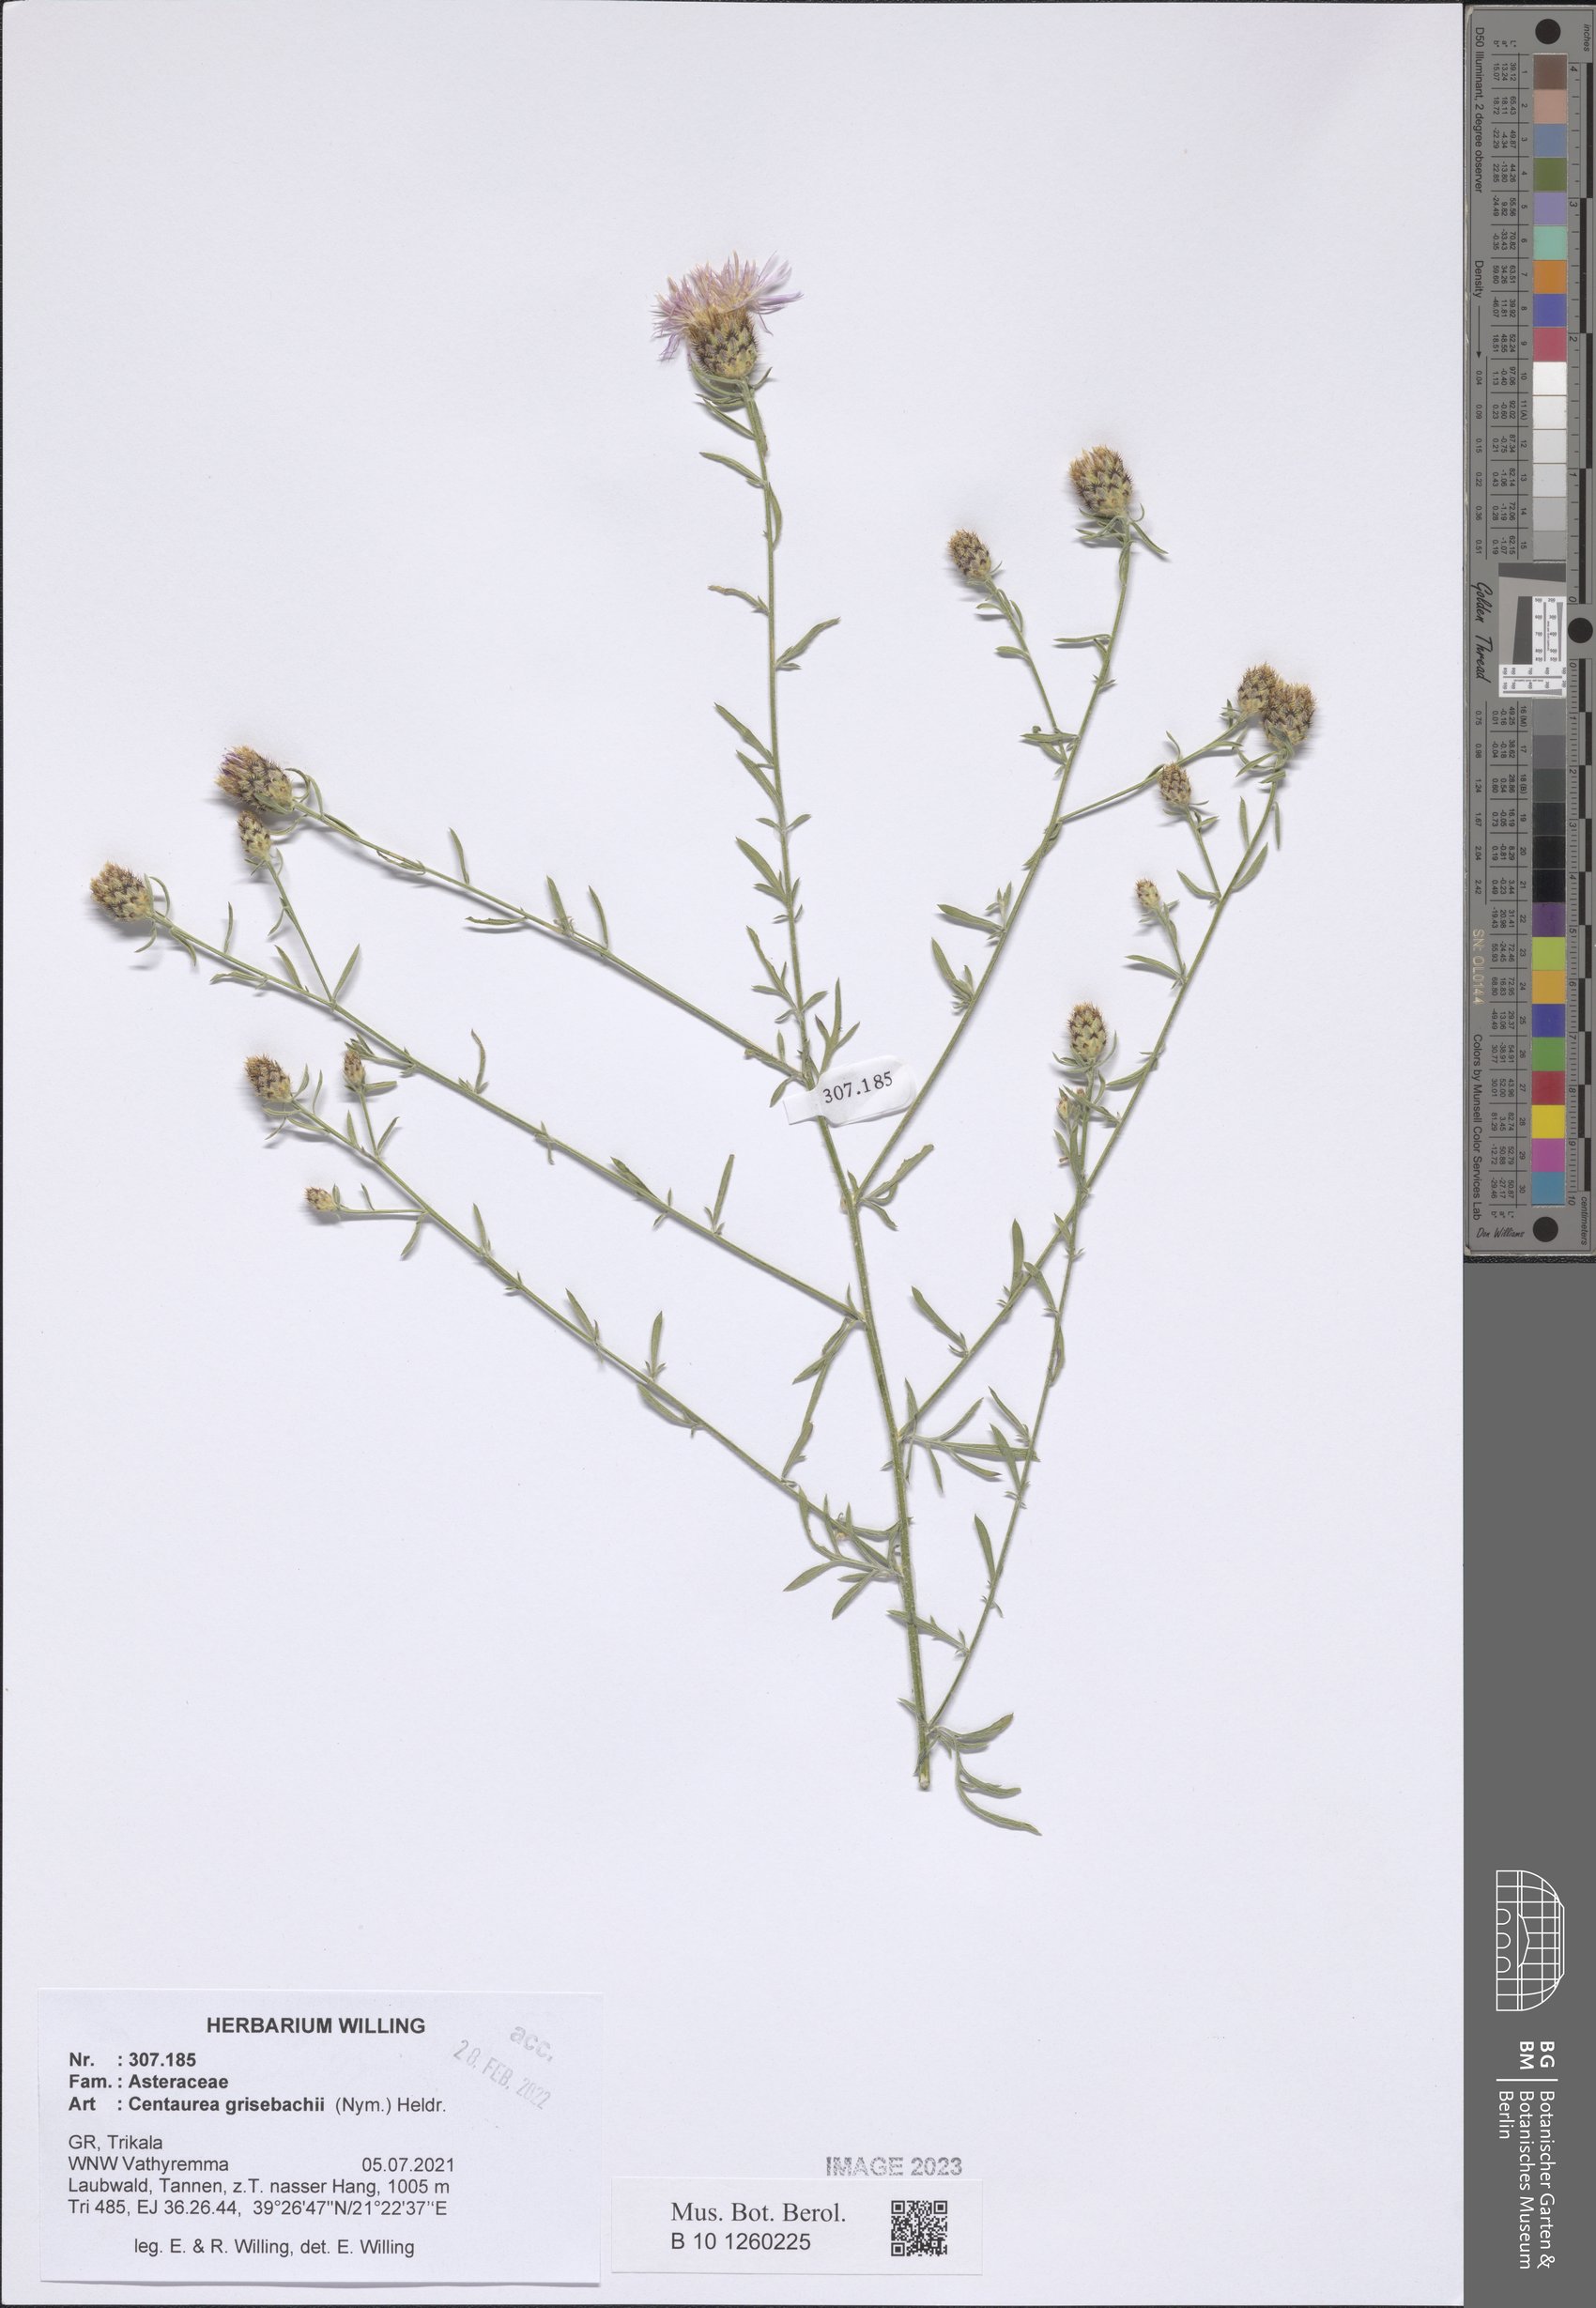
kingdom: Plantae
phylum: Tracheophyta
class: Magnoliopsida
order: Asterales
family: Asteraceae
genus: Centaurea
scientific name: Centaurea grisebachii
